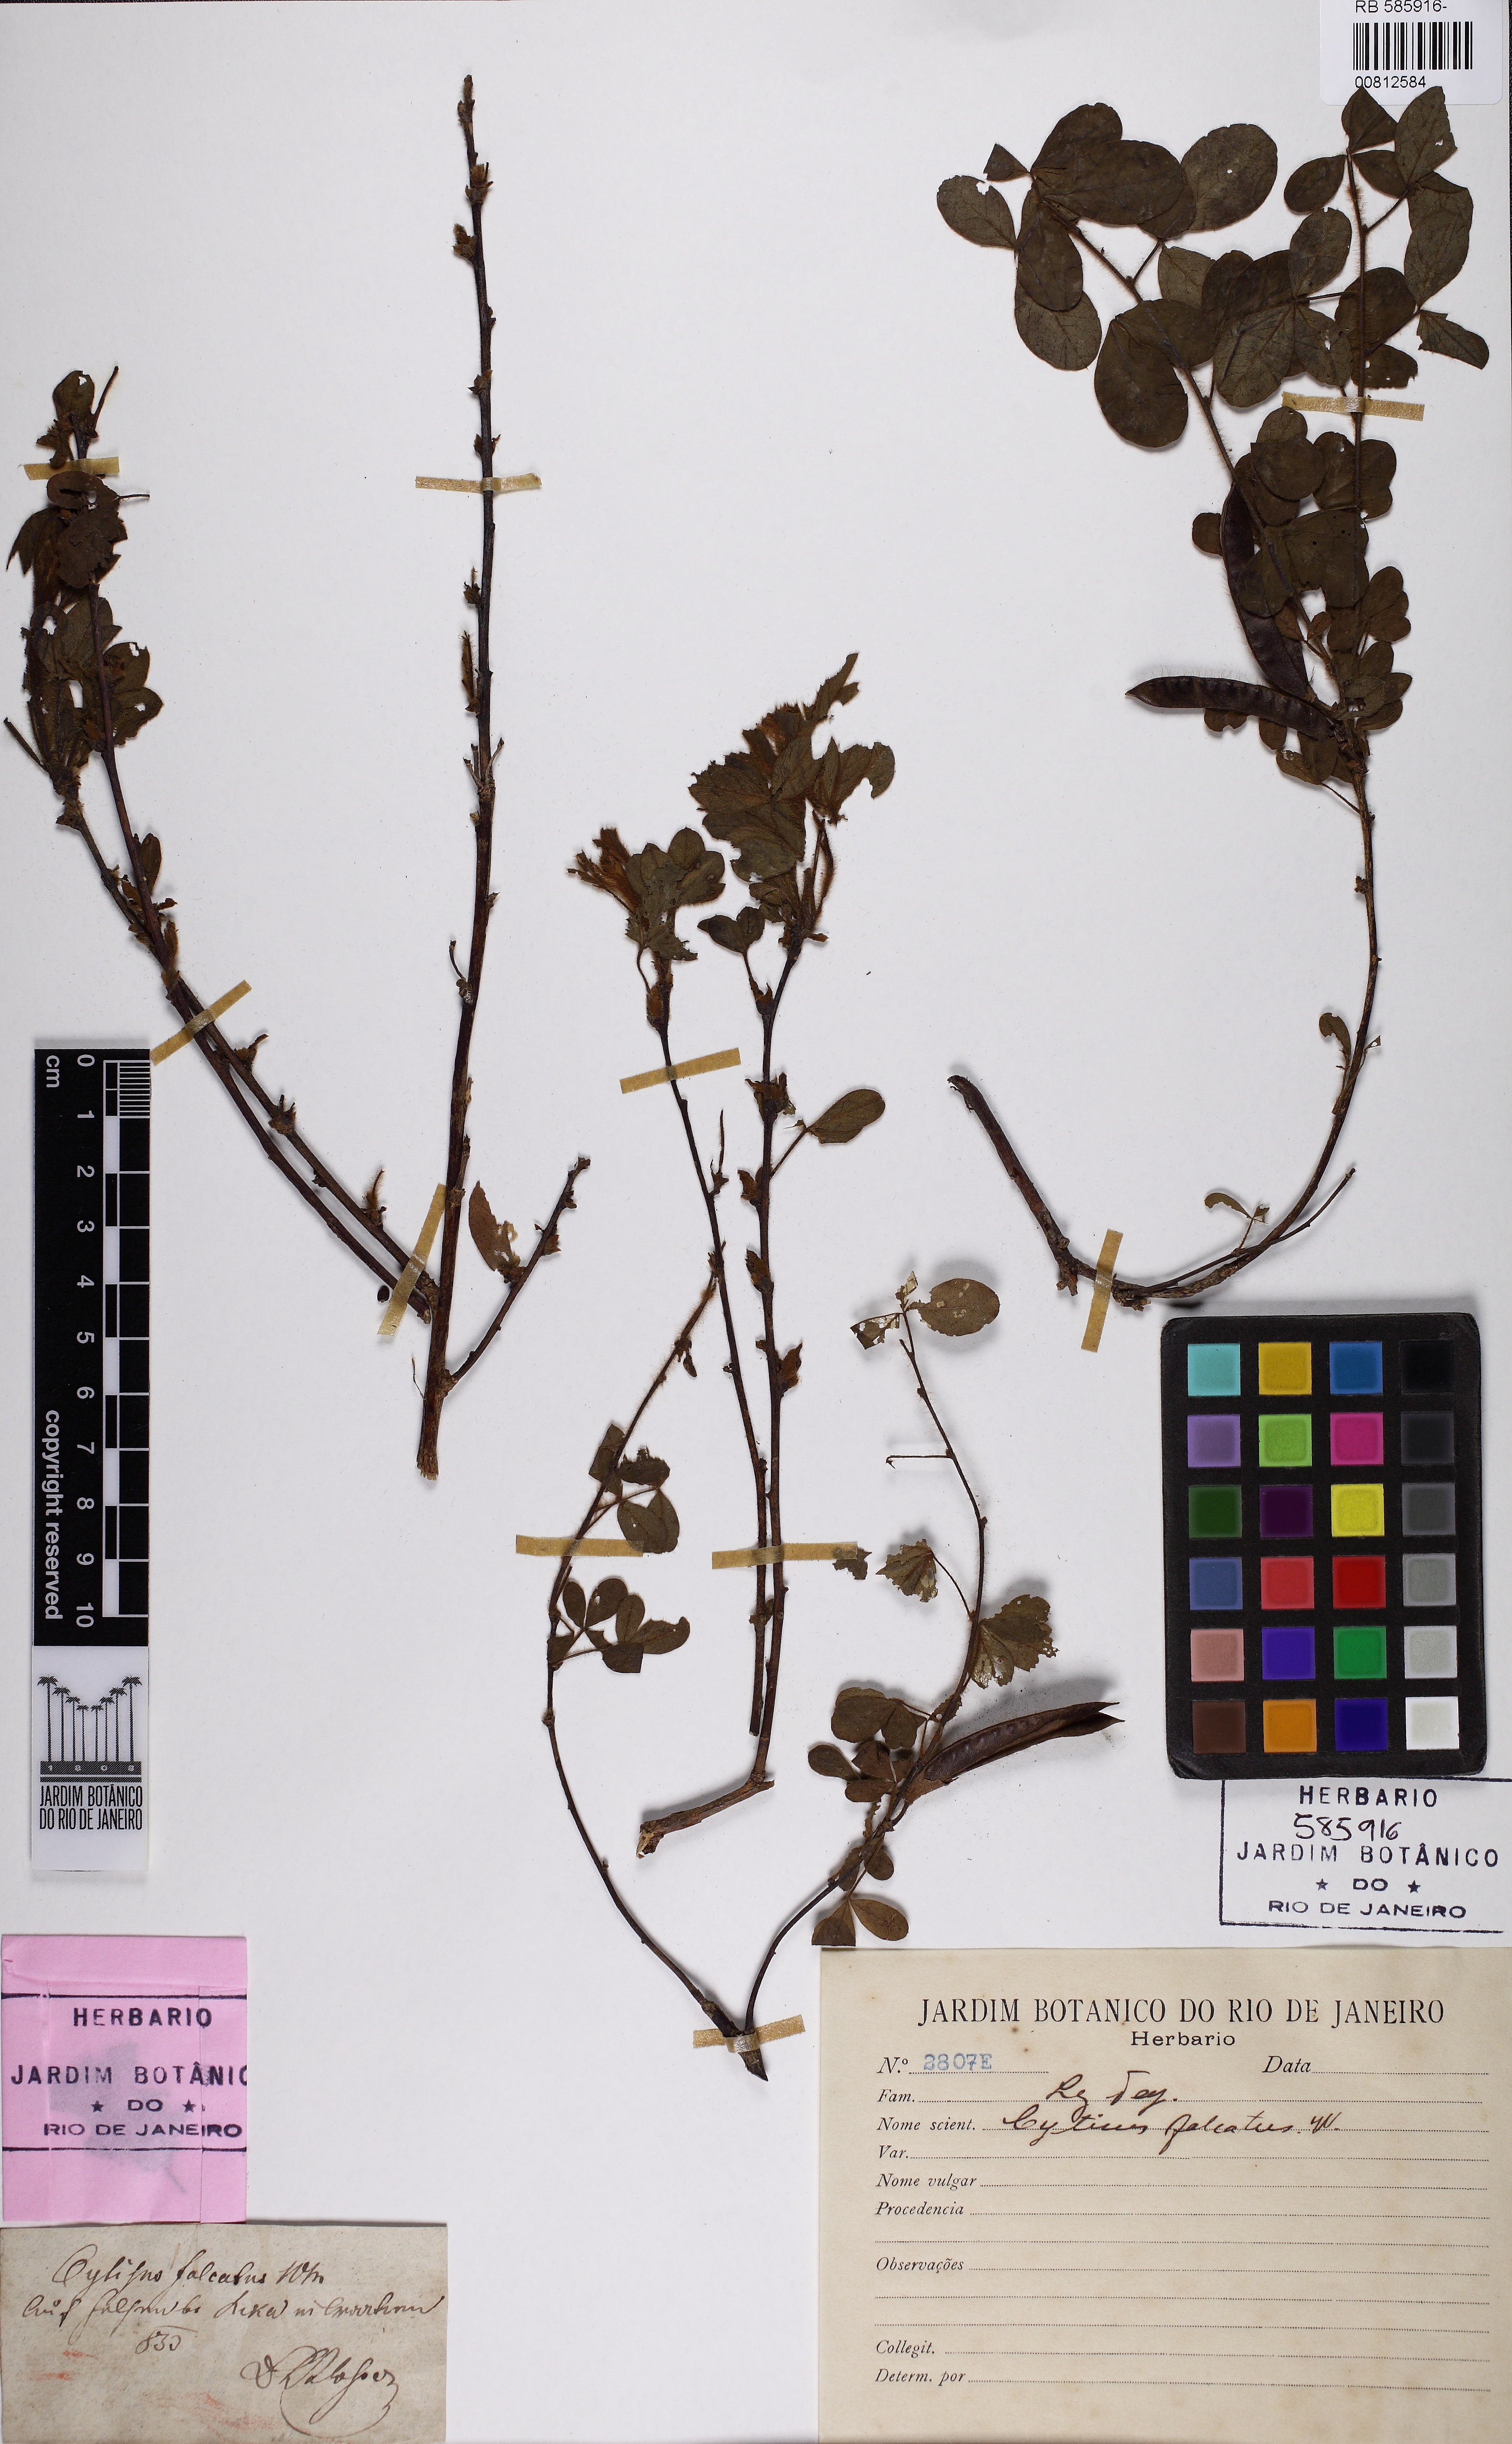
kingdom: Plantae
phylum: Tracheophyta
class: Magnoliopsida
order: Fabales
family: Fabaceae
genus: Chamaecytisus
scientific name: Chamaecytisus ratisbonensis
